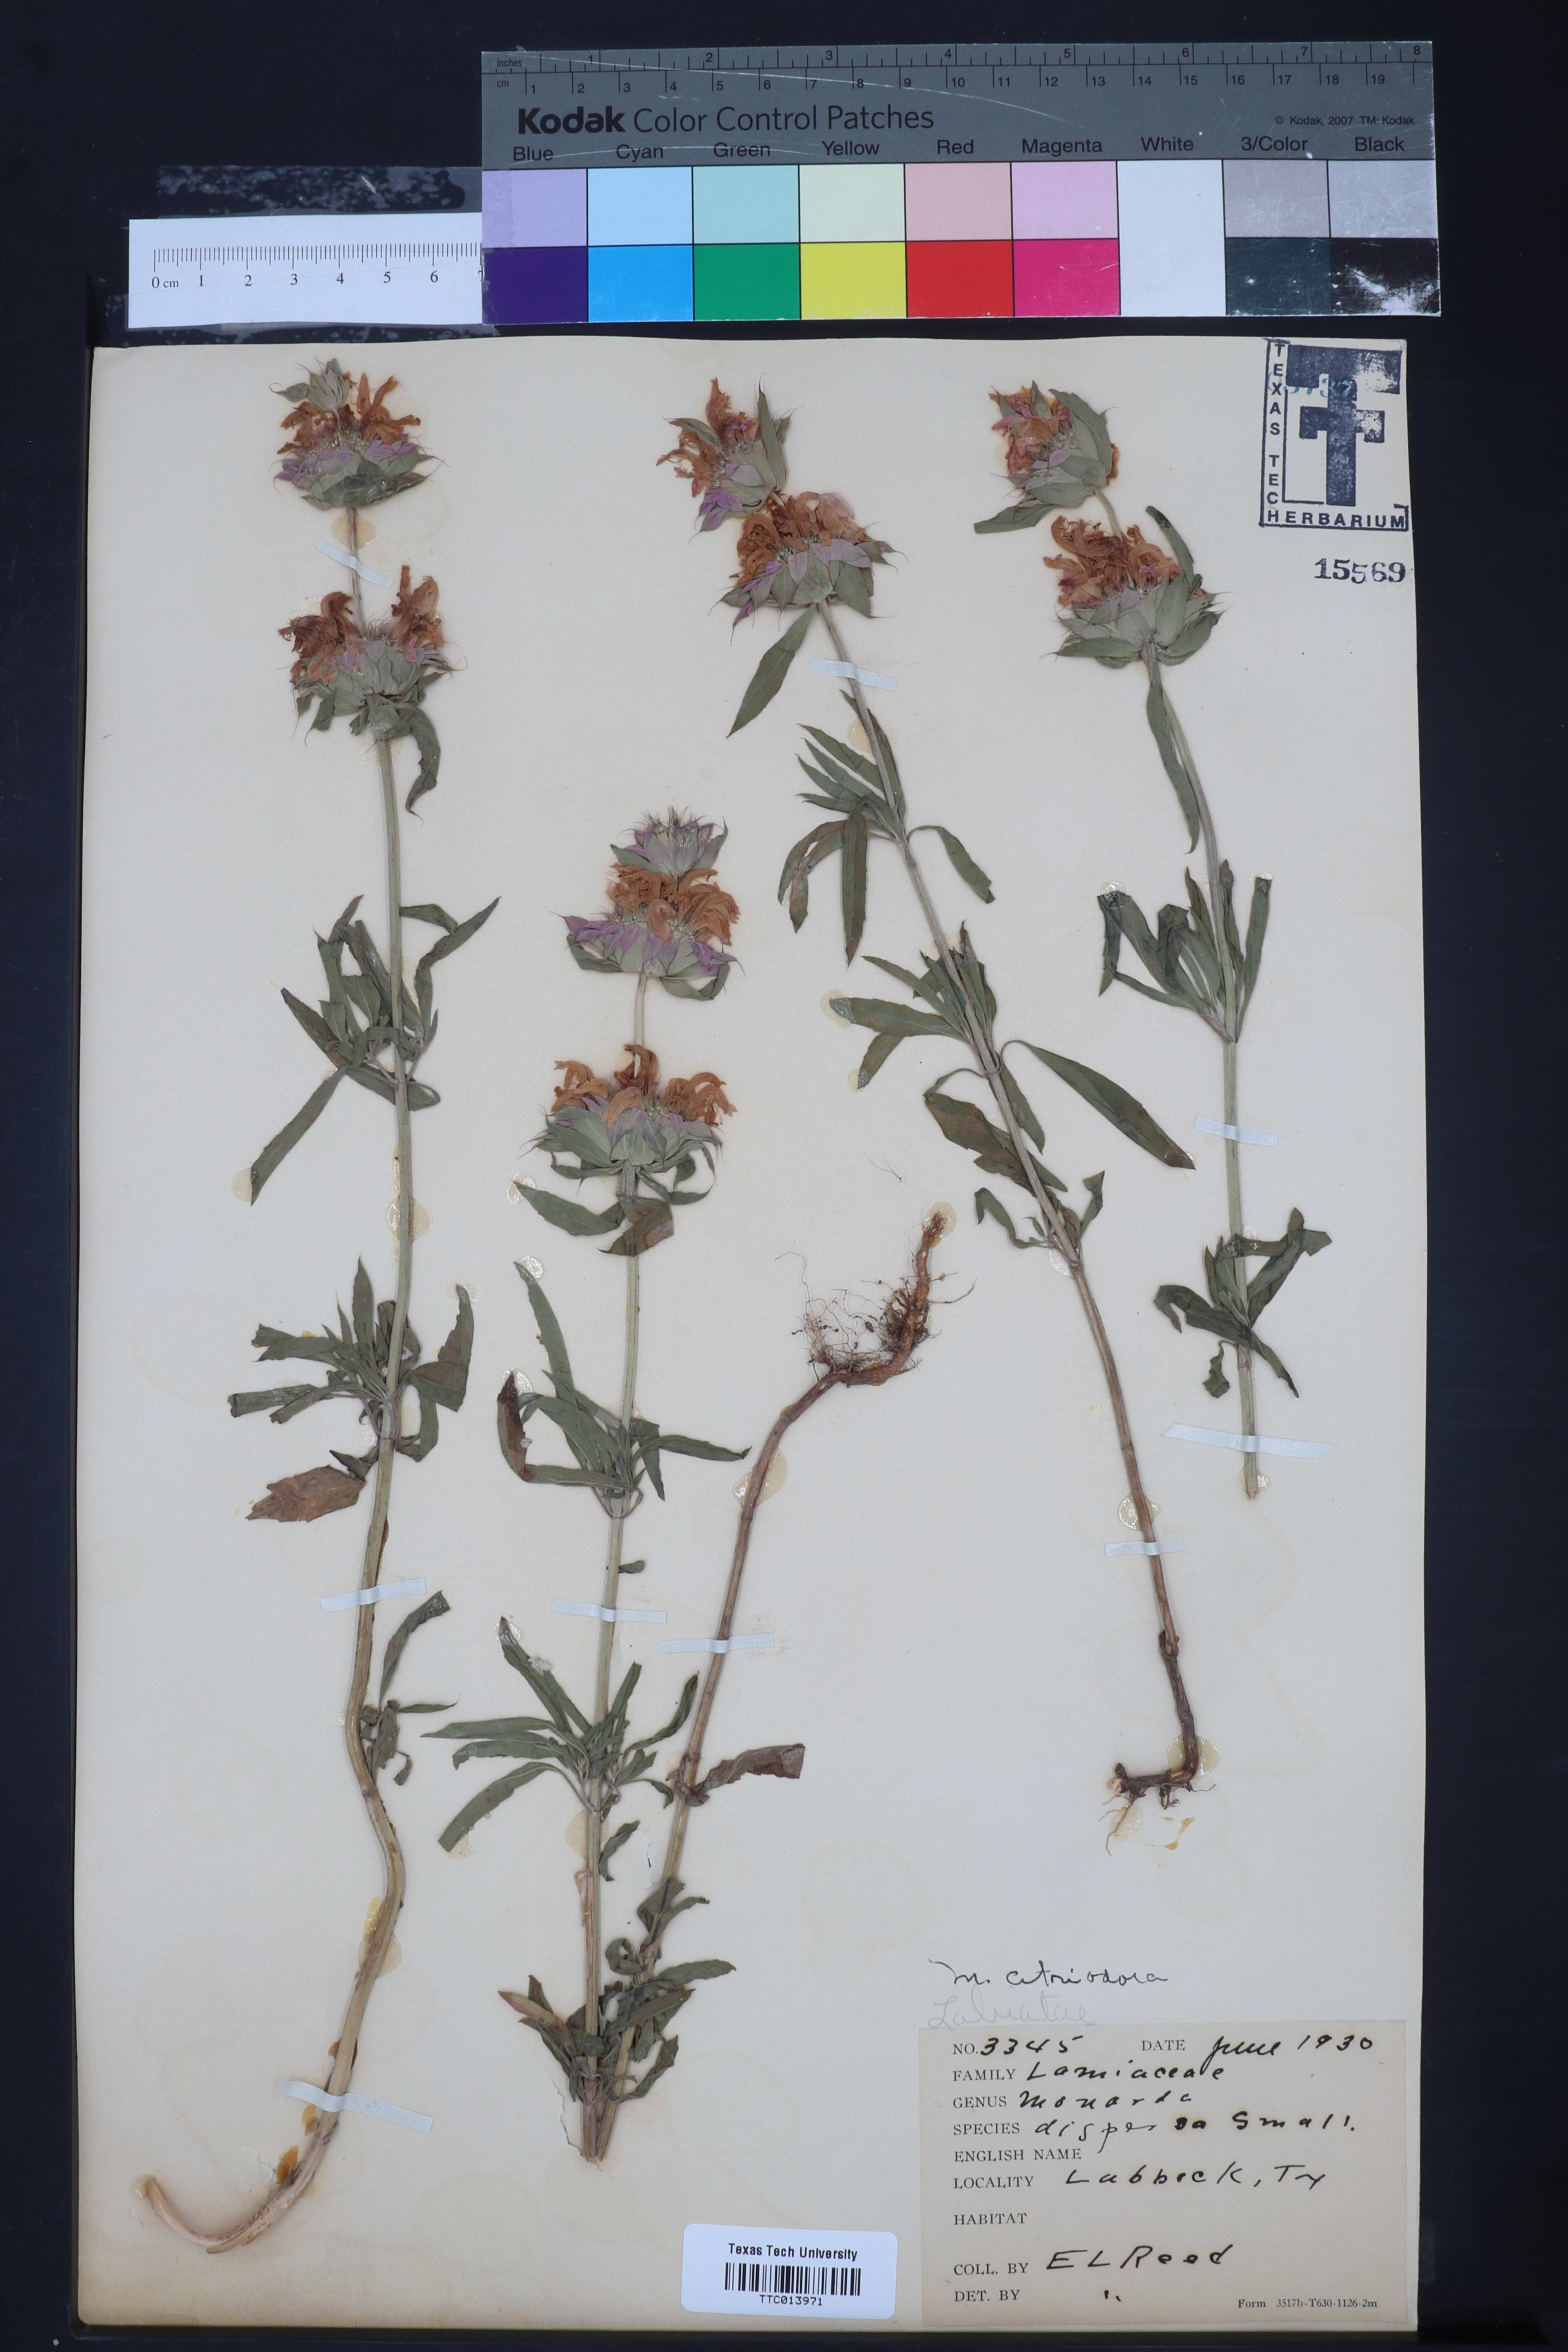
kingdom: Plantae
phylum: Tracheophyta
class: Magnoliopsida
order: Lamiales
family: Lamiaceae
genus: Monarda
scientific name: Monarda citriodora
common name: Lemon beebalm
